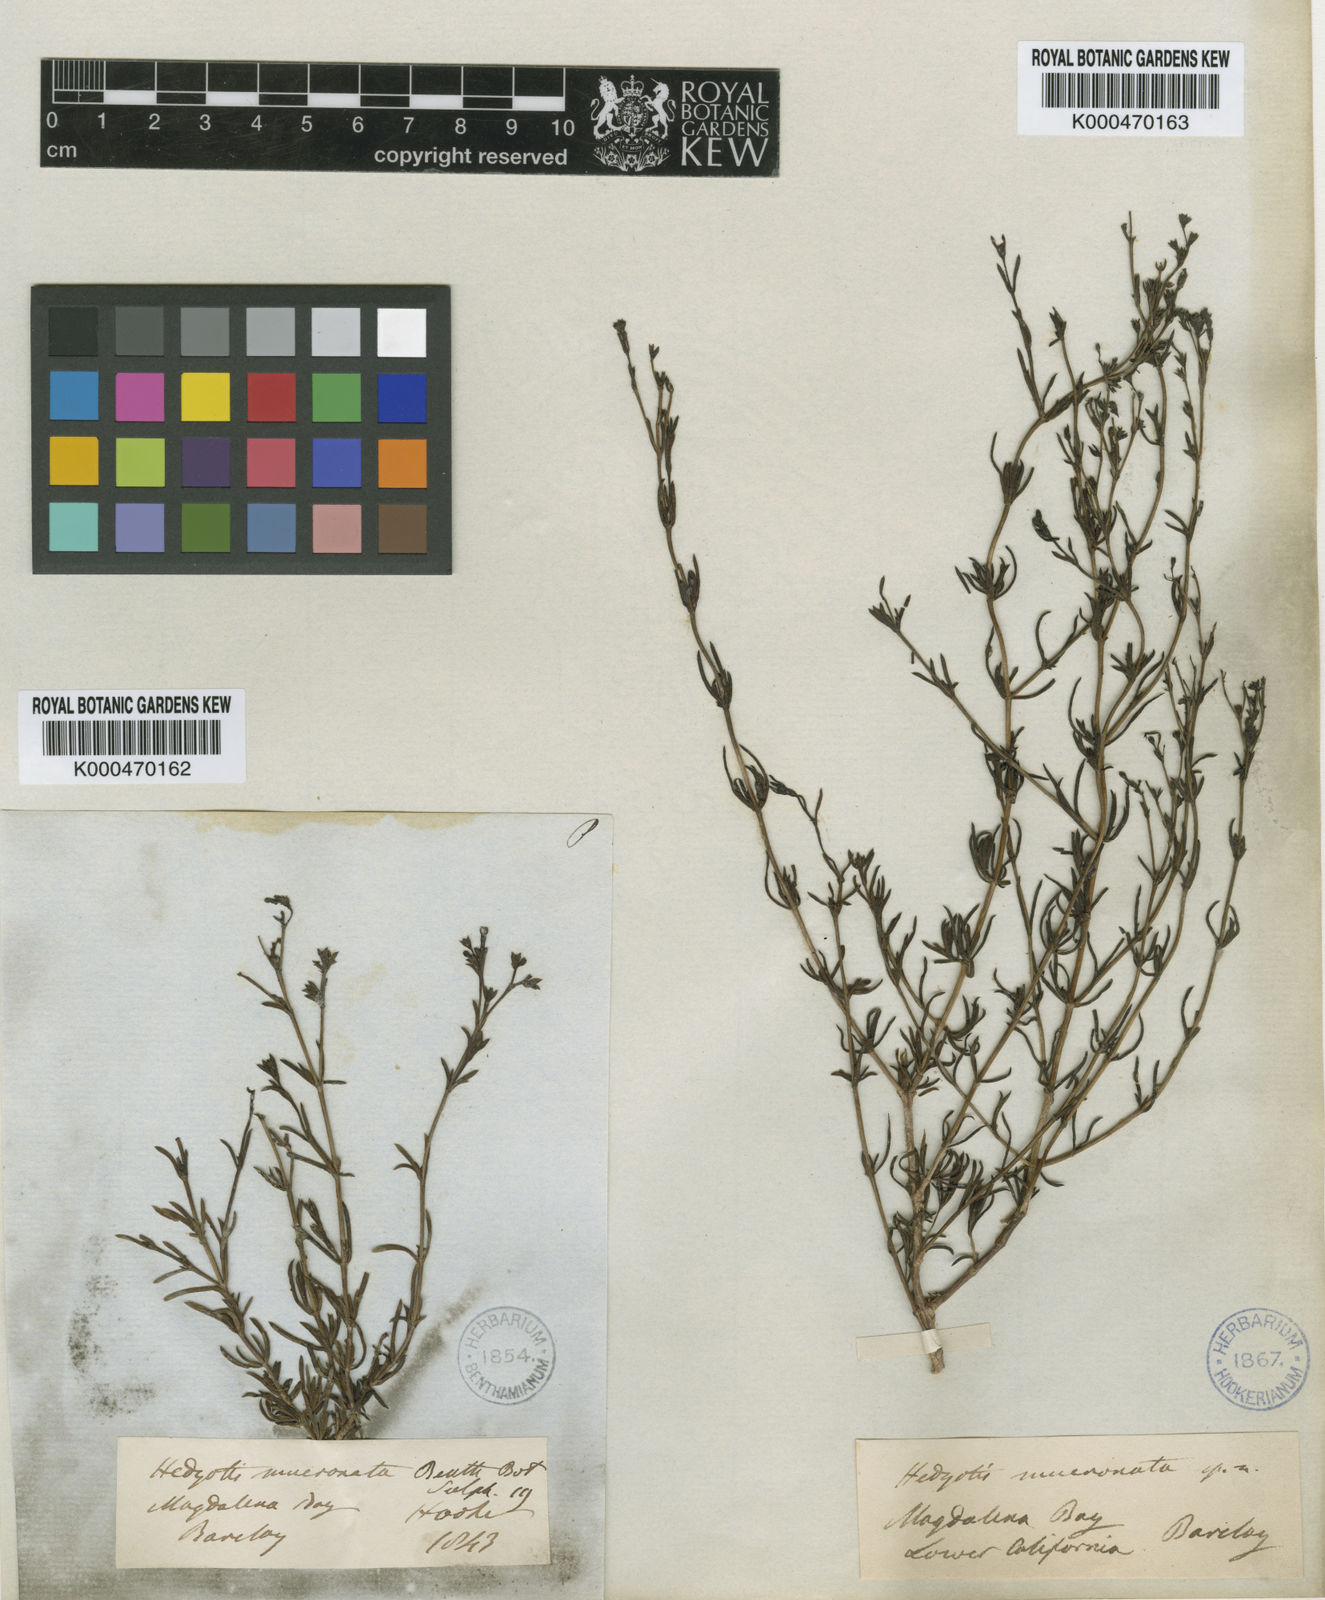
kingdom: Plantae
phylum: Tracheophyta
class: Magnoliopsida
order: Gentianales
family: Rubiaceae
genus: Stenotis
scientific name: Stenotis mucronata
